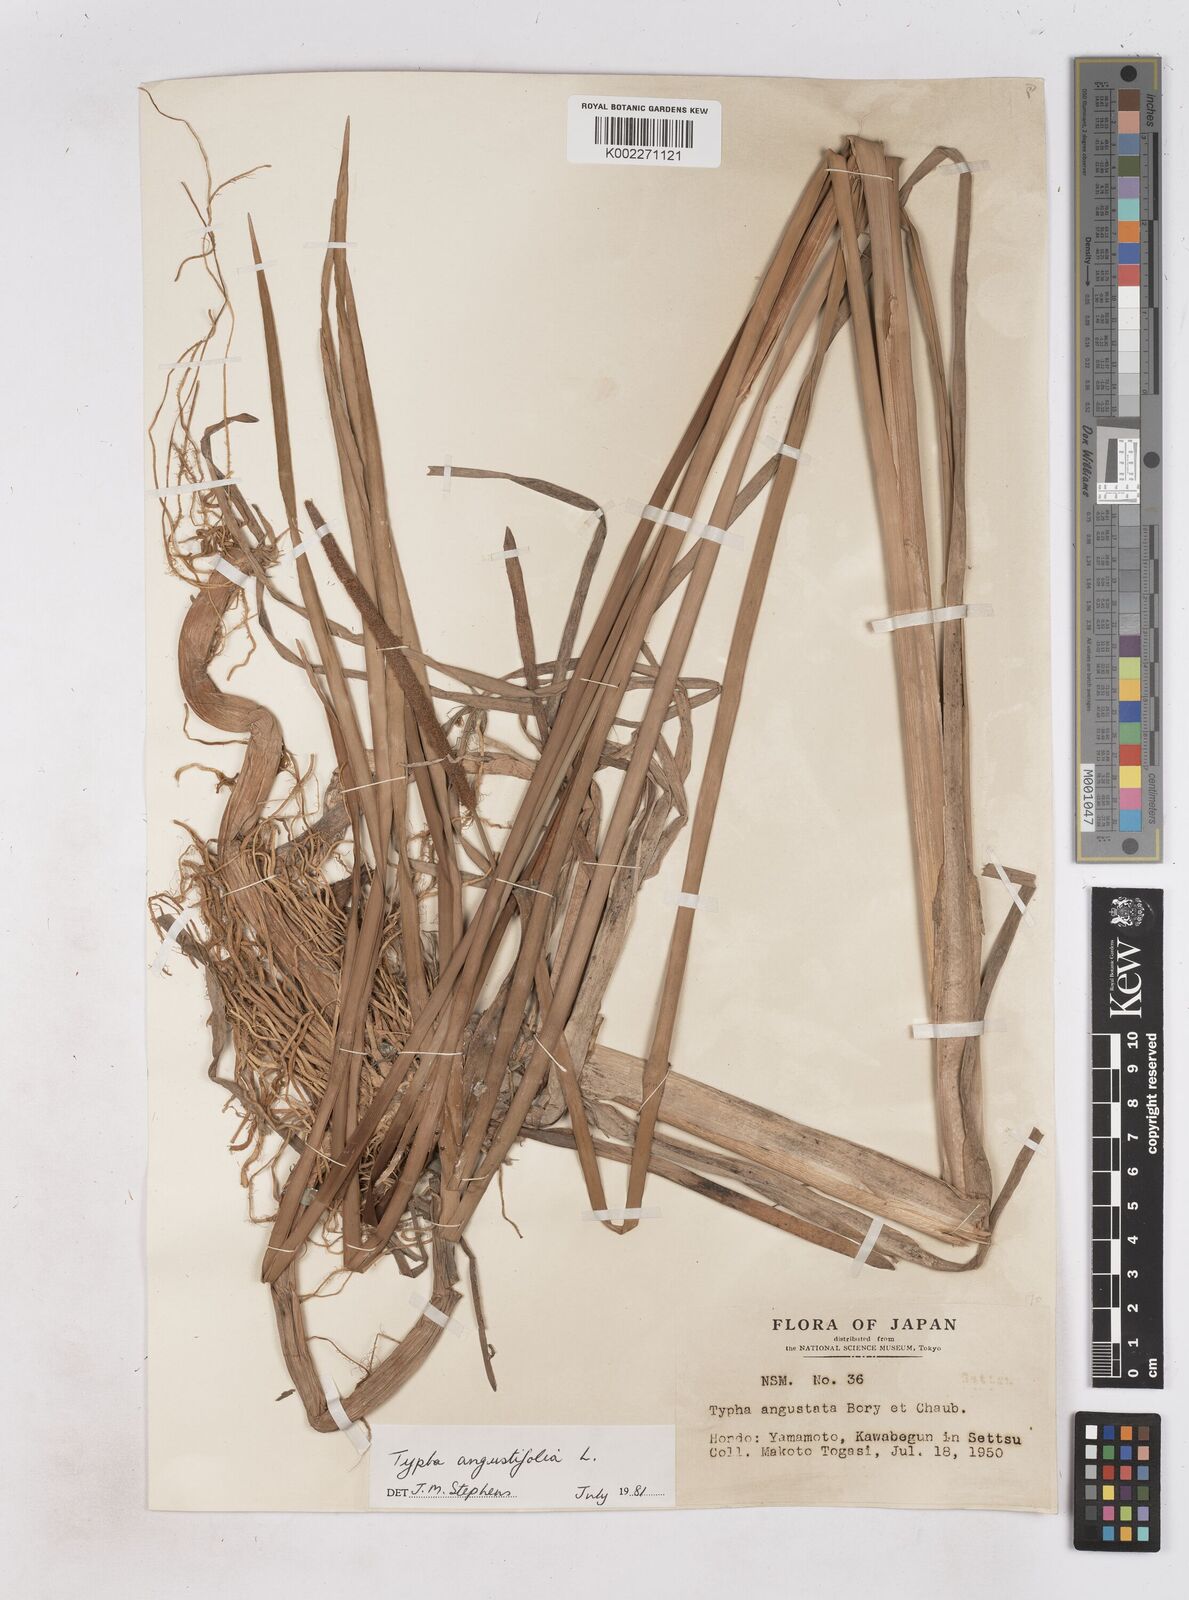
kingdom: Plantae
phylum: Tracheophyta
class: Liliopsida
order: Poales
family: Typhaceae
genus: Typha
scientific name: Typha angustifolia
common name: Lesser bulrush
